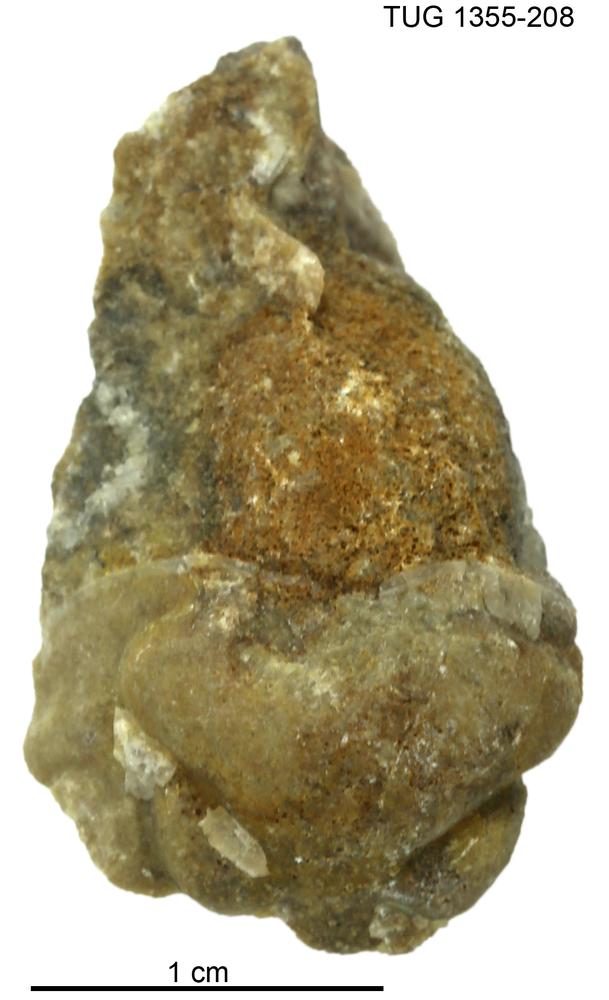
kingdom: Animalia
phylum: Arthropoda
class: Trilobita
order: Phacopida
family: Pterygometopidae
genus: Chasmops
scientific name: Chasmops macrourus
